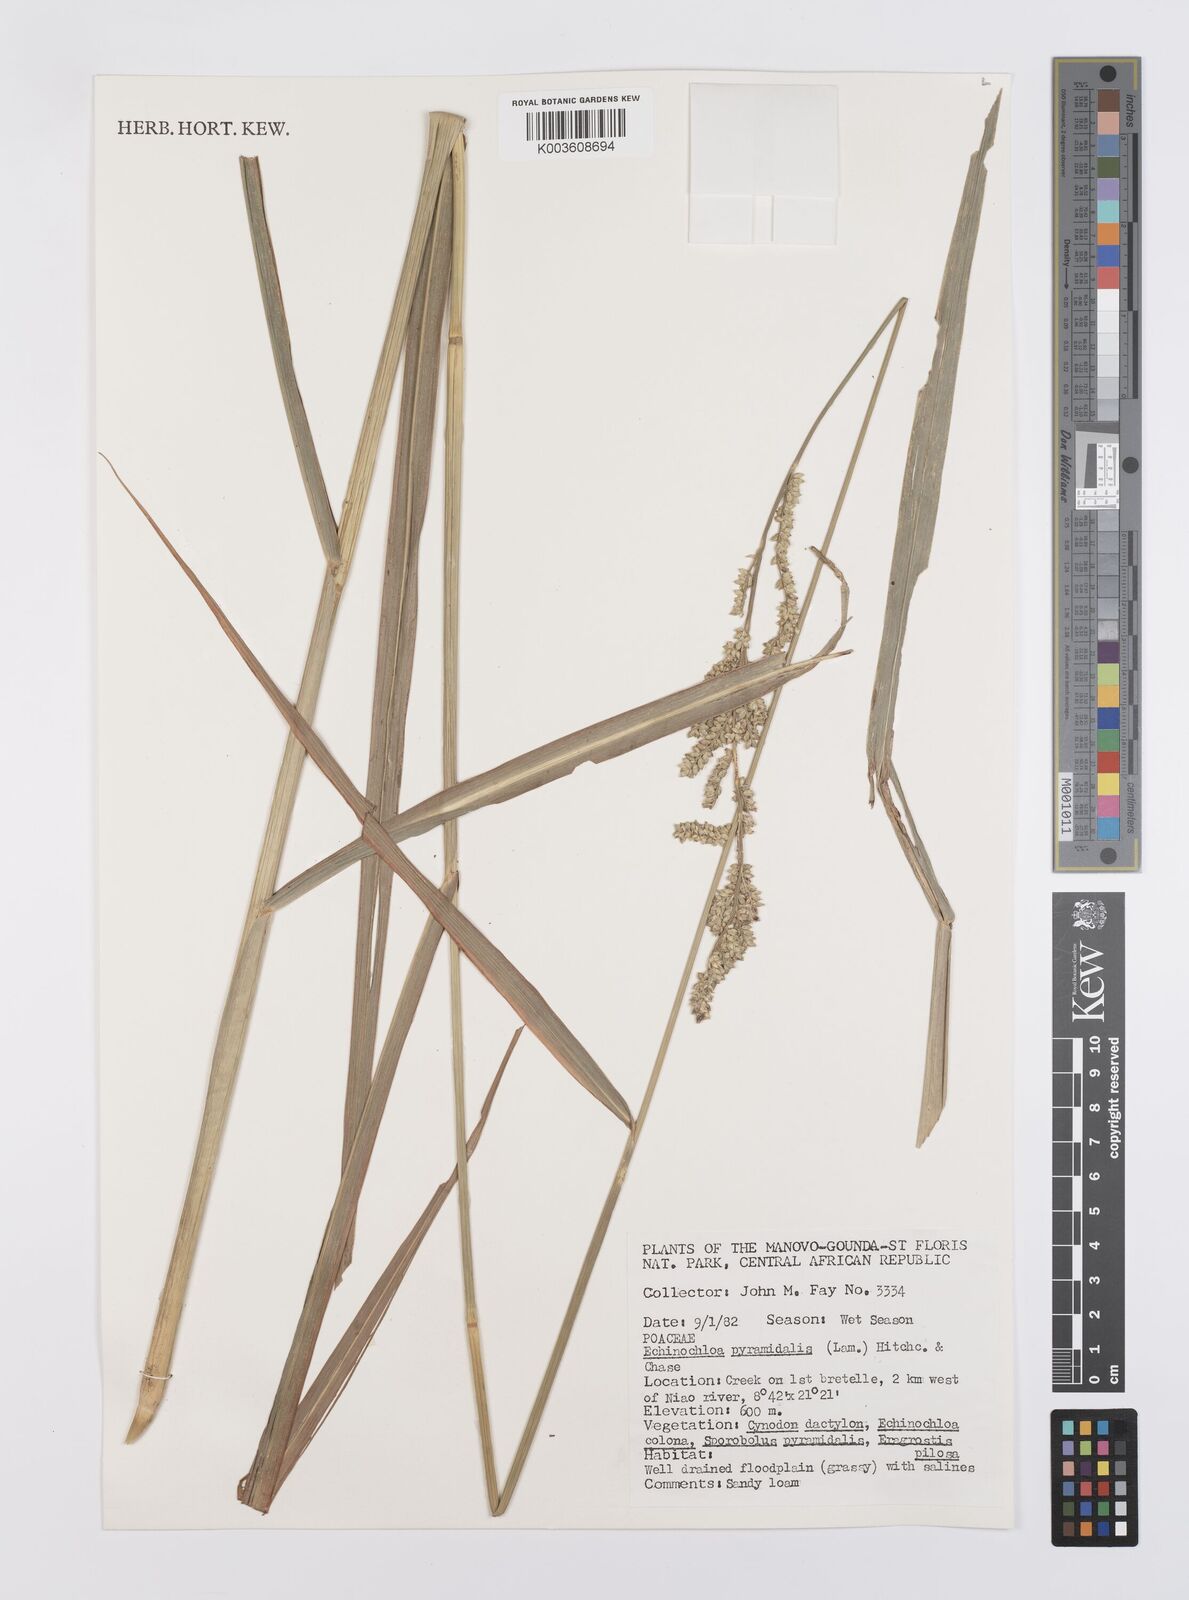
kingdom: Plantae
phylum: Tracheophyta
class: Liliopsida
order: Poales
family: Poaceae
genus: Echinochloa
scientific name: Echinochloa pyramidalis
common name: Antelope grass
